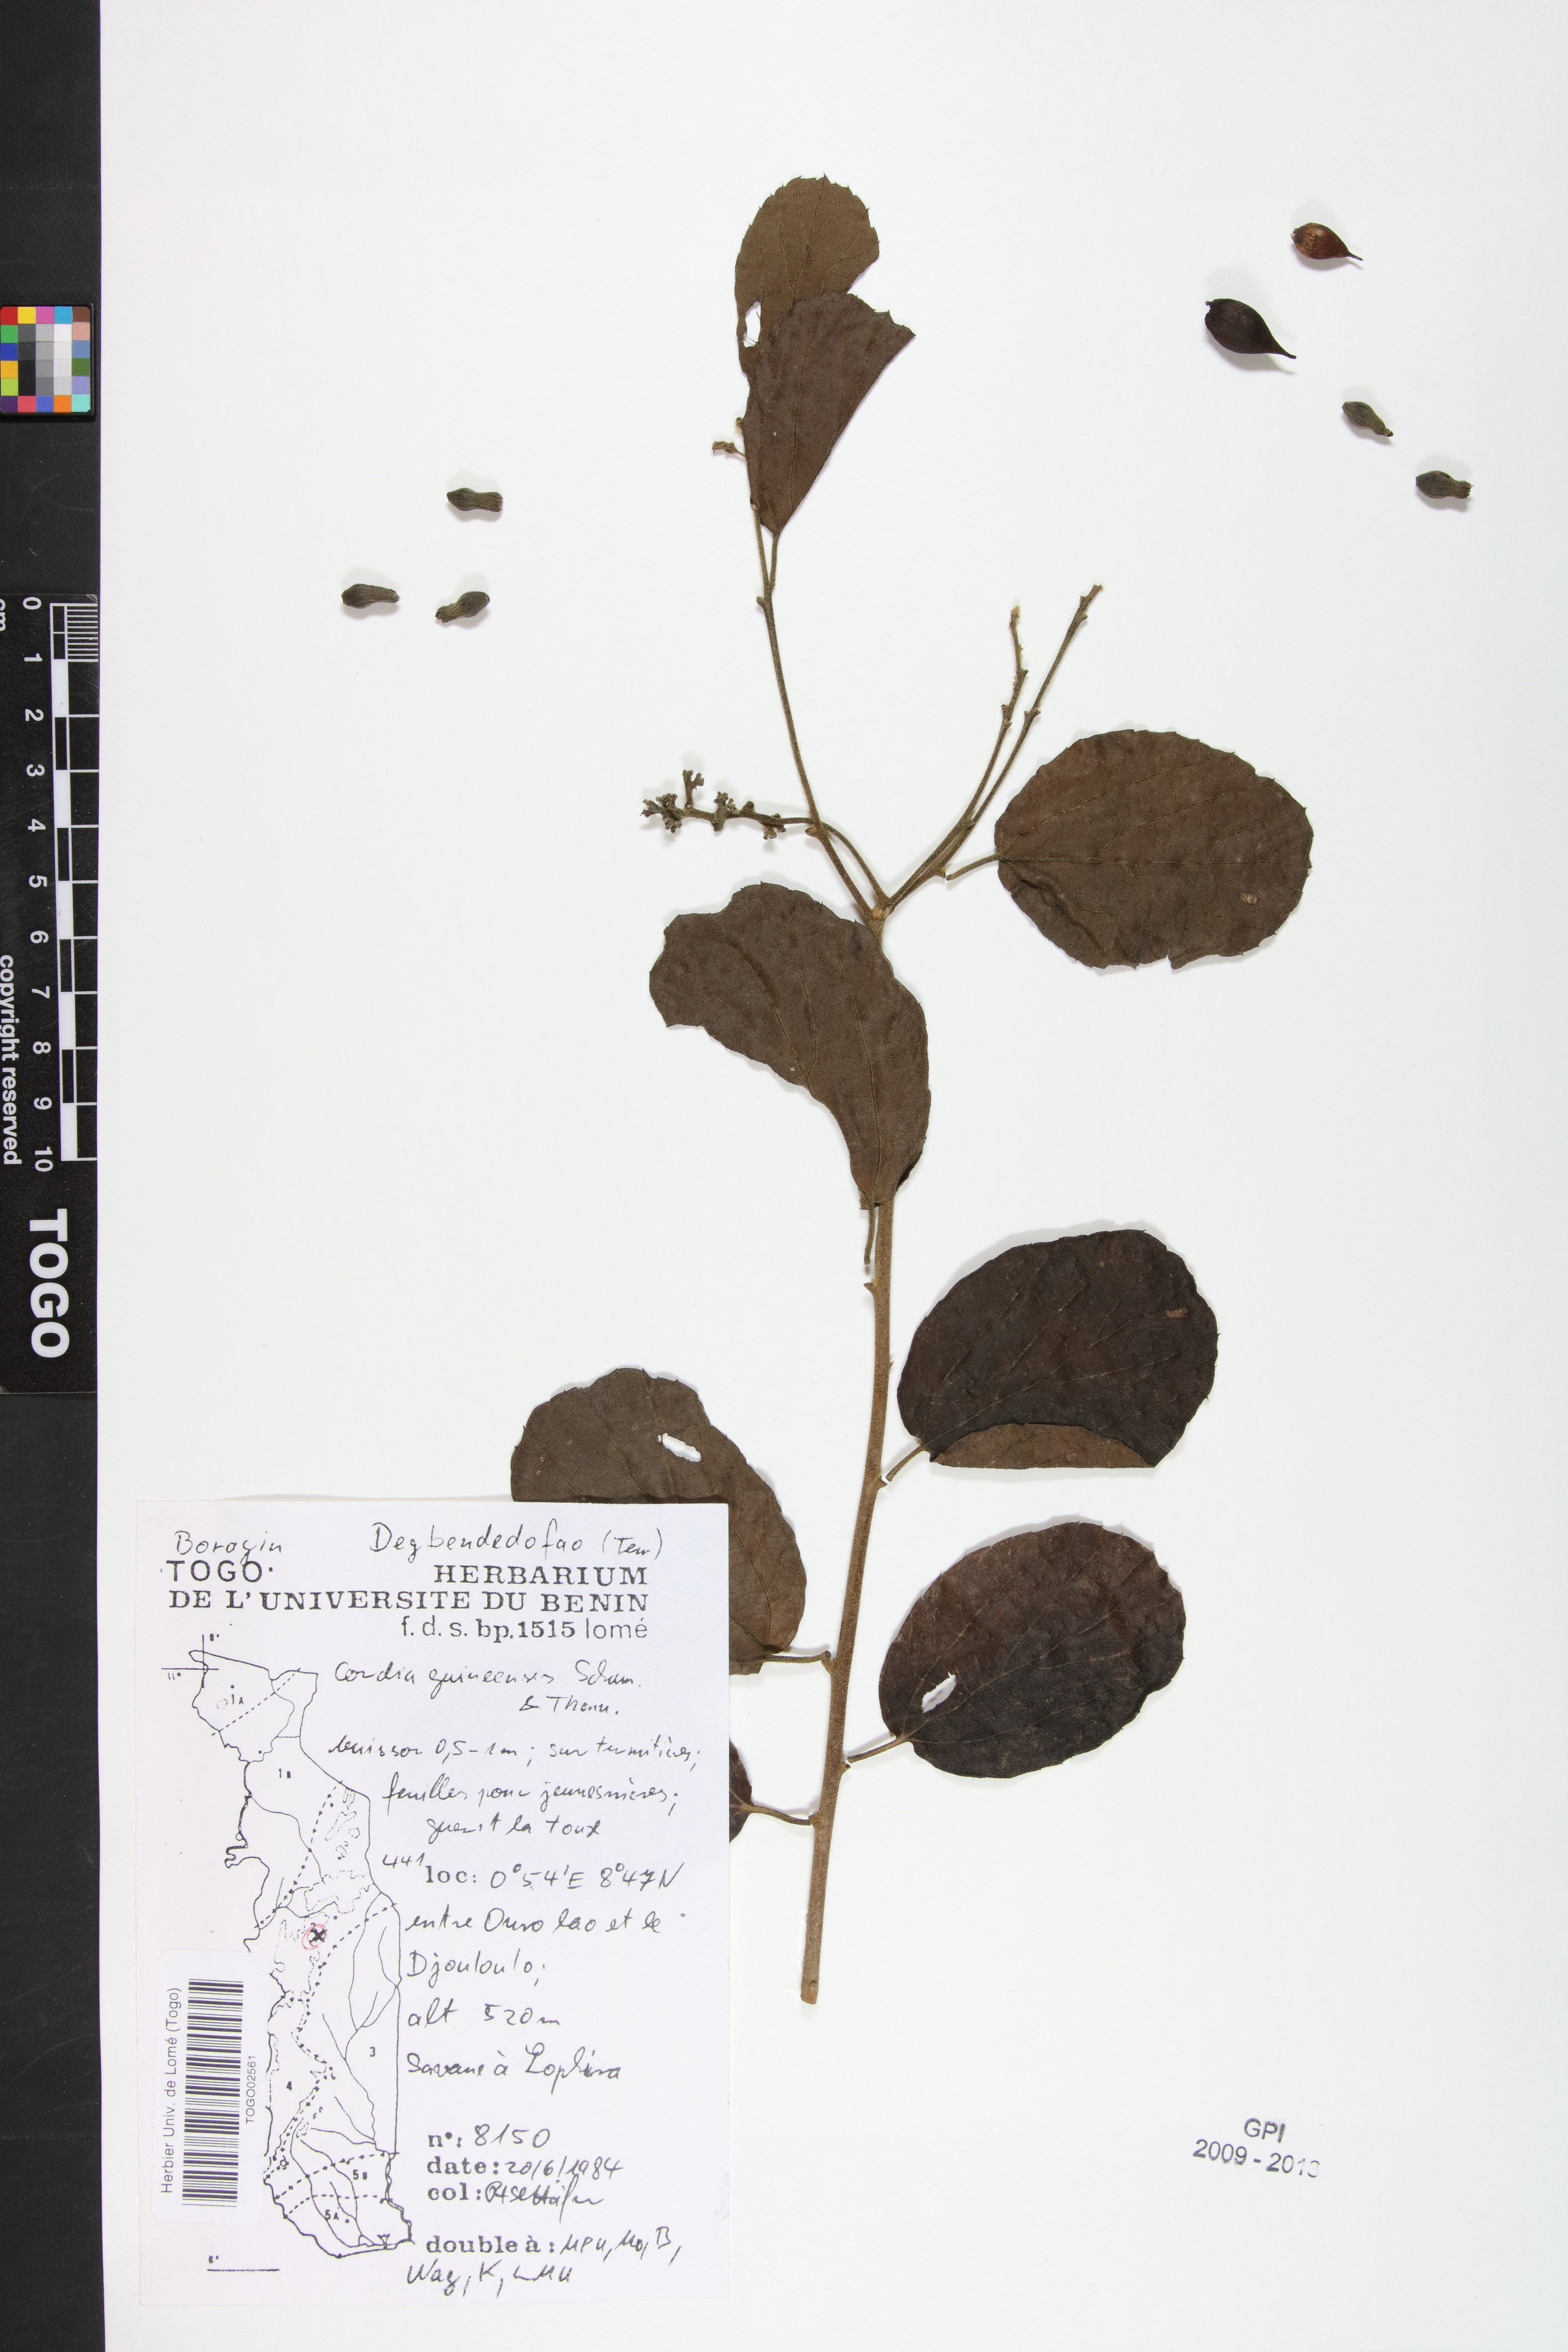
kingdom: Plantae
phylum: Tracheophyta
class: Magnoliopsida
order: Boraginales
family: Cordiaceae
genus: Cordia
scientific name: Cordia guineensis
